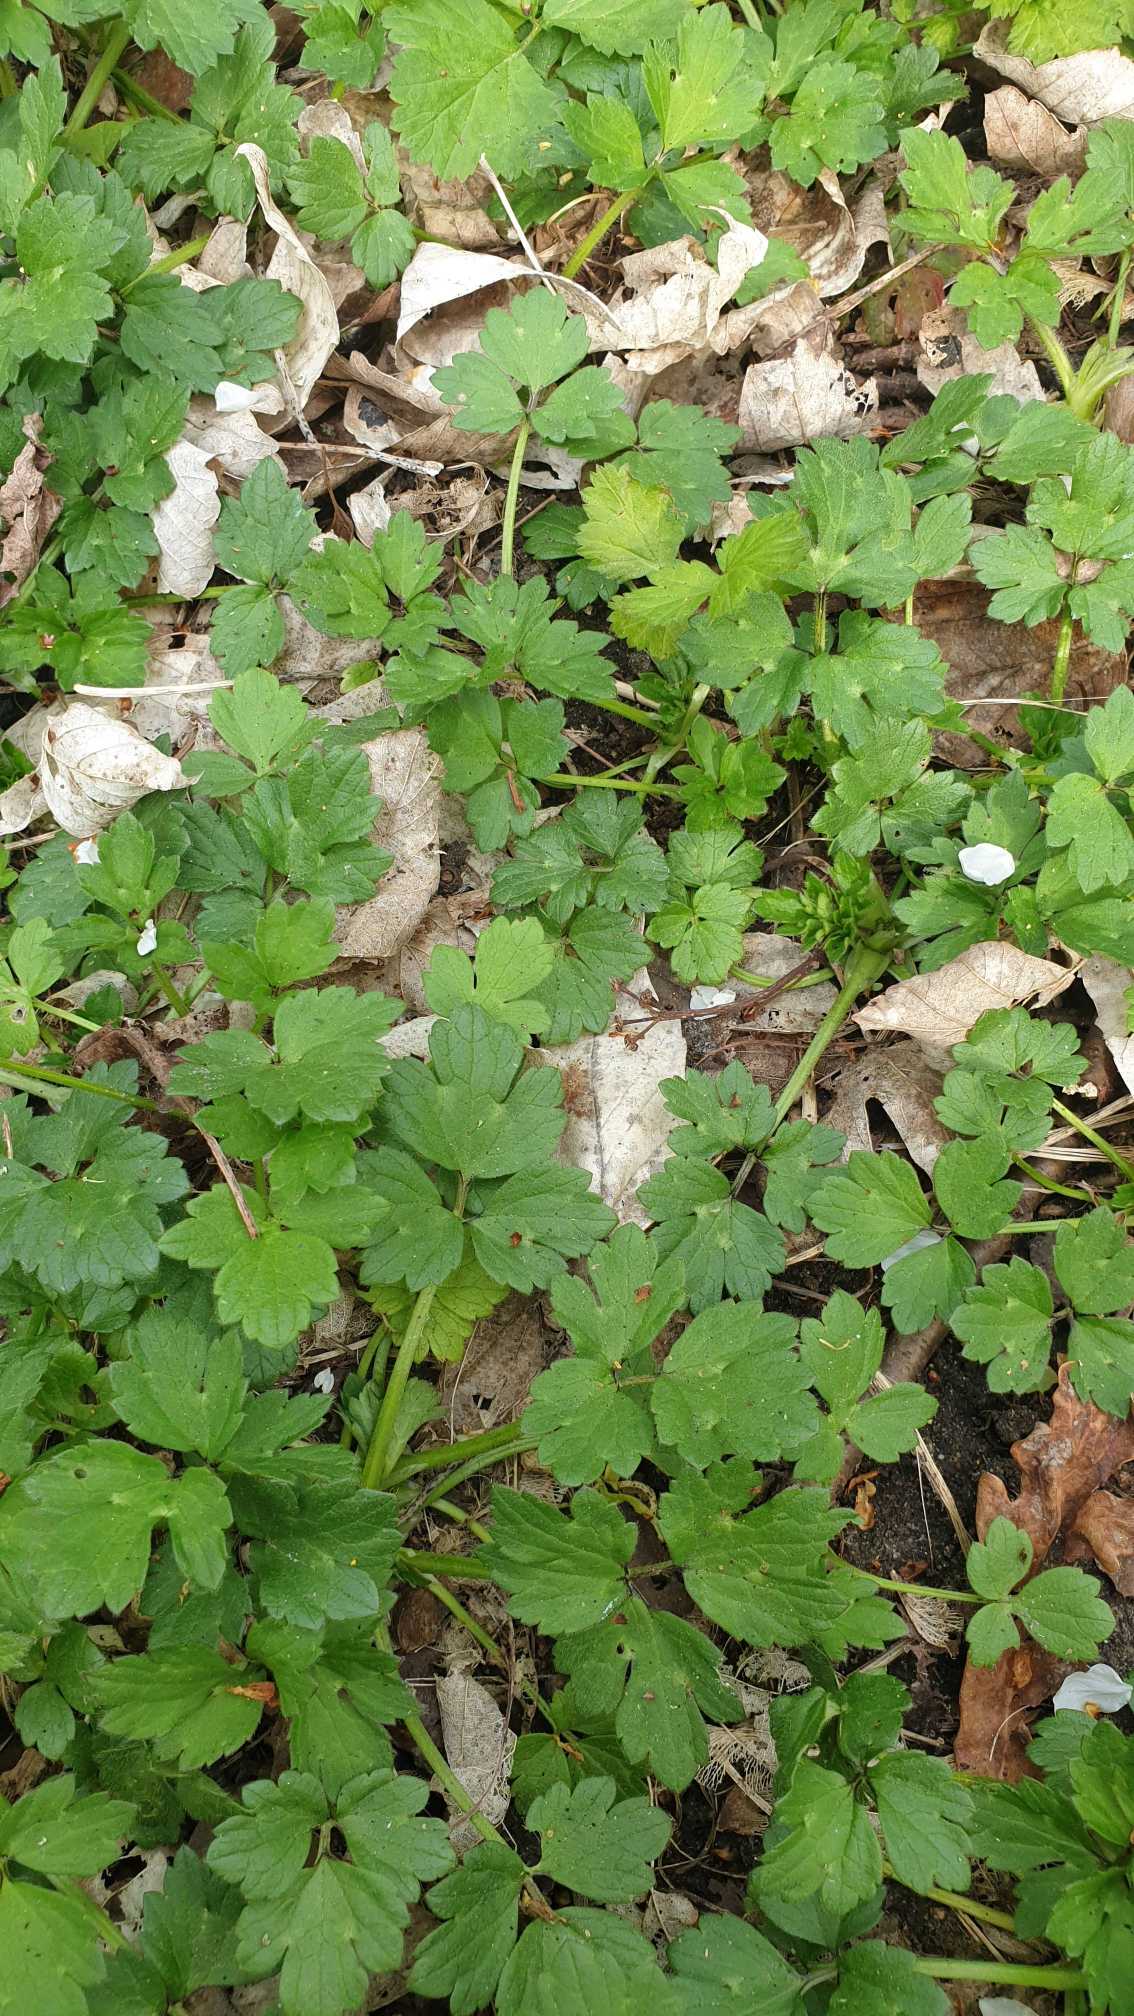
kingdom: Plantae
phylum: Tracheophyta
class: Magnoliopsida
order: Ranunculales
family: Ranunculaceae
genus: Ranunculus
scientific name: Ranunculus repens
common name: Lav ranunkel
